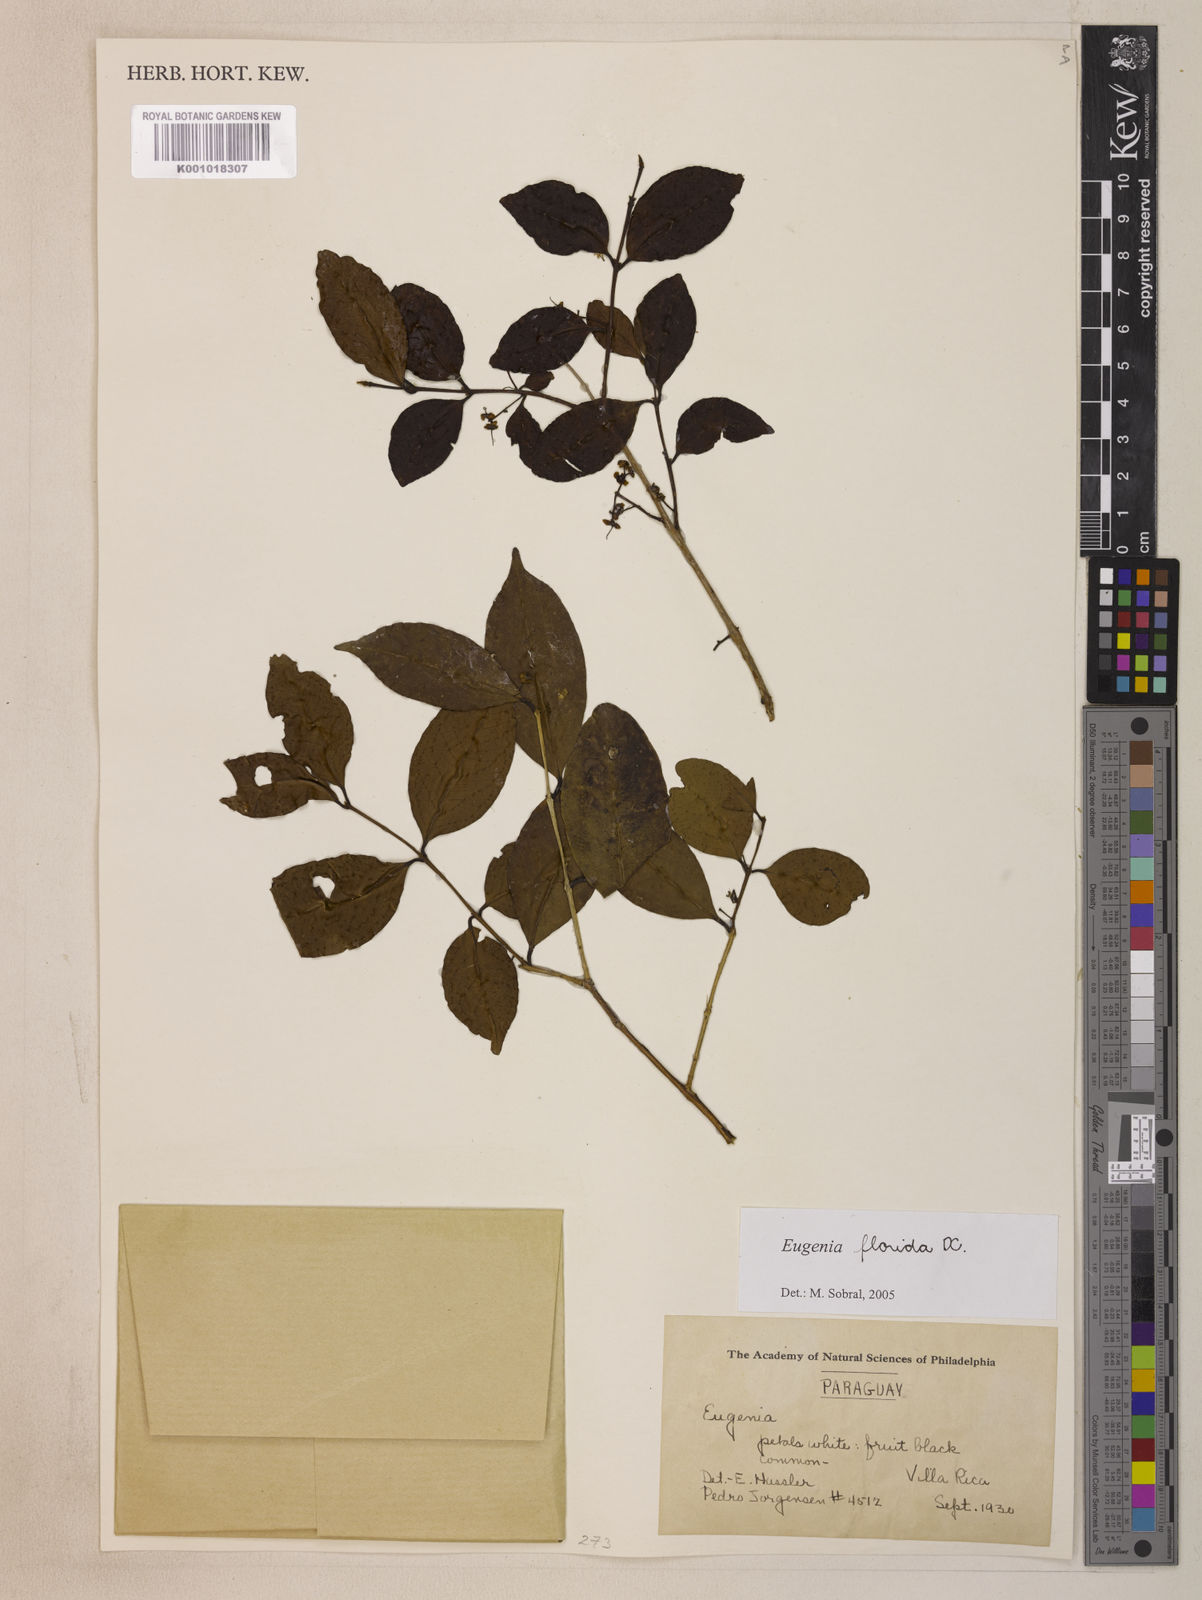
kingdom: Plantae
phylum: Tracheophyta
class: Magnoliopsida
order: Myrtales
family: Myrtaceae
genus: Eugenia
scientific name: Eugenia florida
